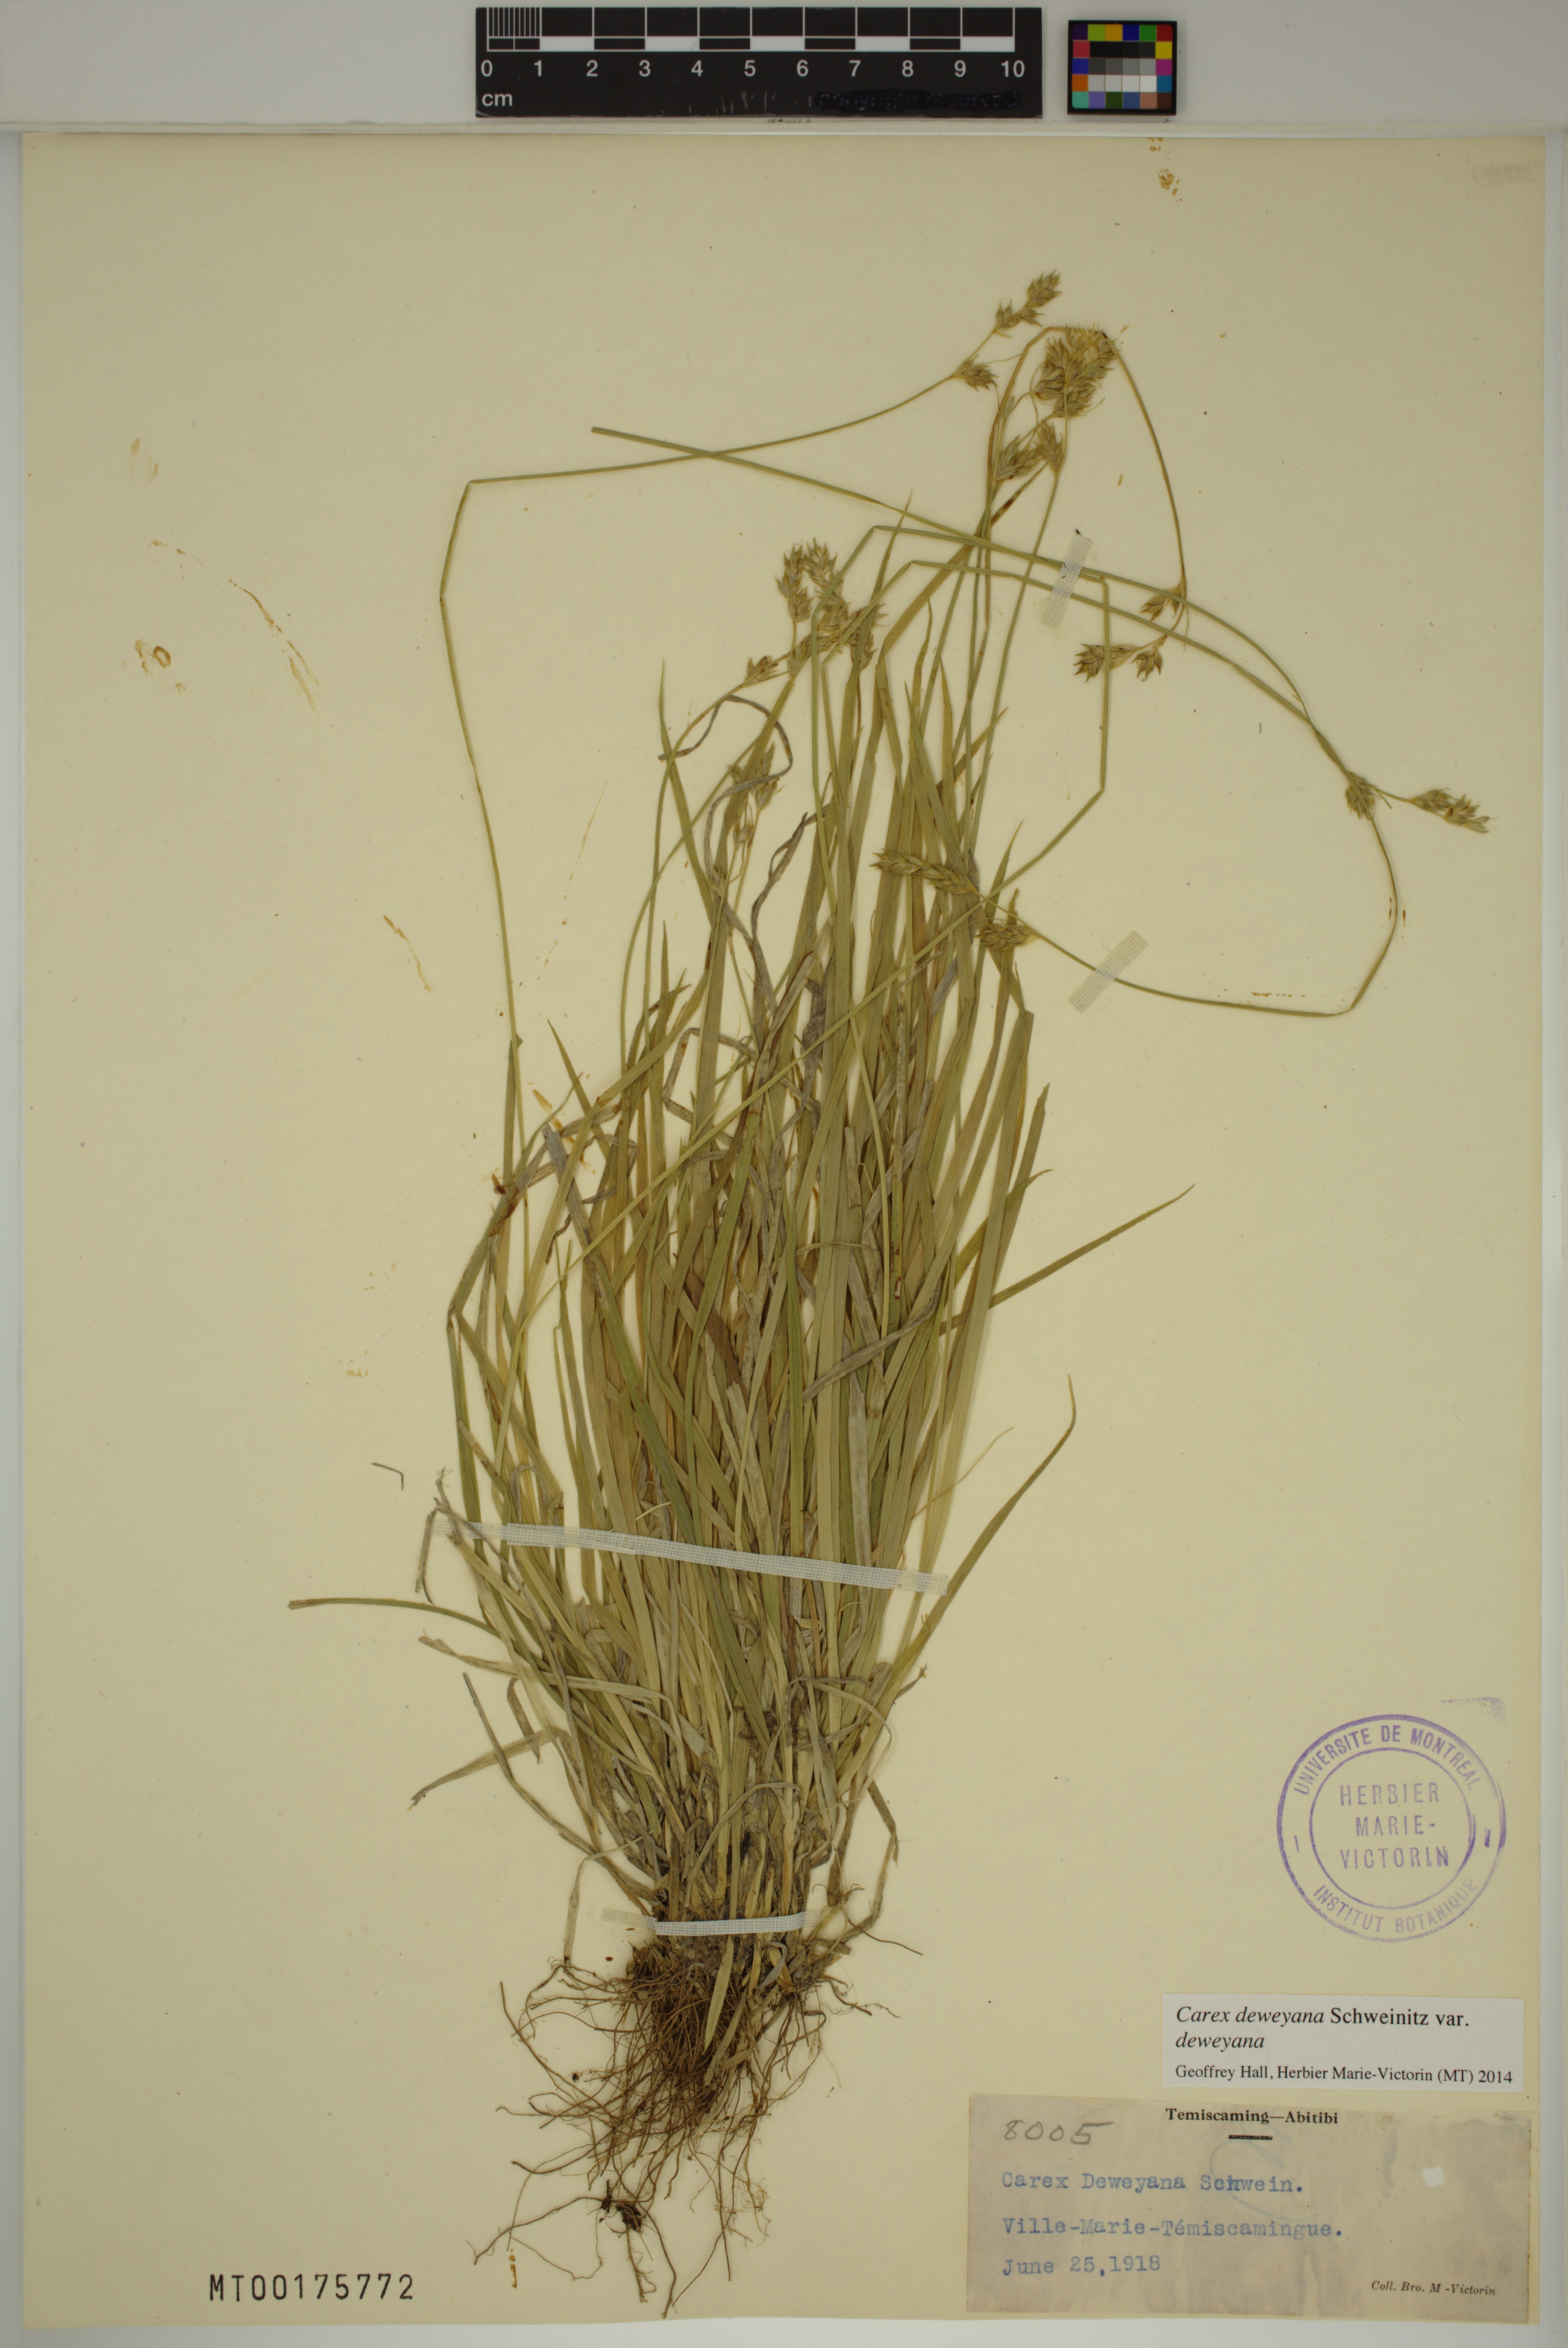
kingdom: Plantae
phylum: Tracheophyta
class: Liliopsida
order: Poales
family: Cyperaceae
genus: Carex
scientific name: Carex deweyana
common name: Dewey's sedge
